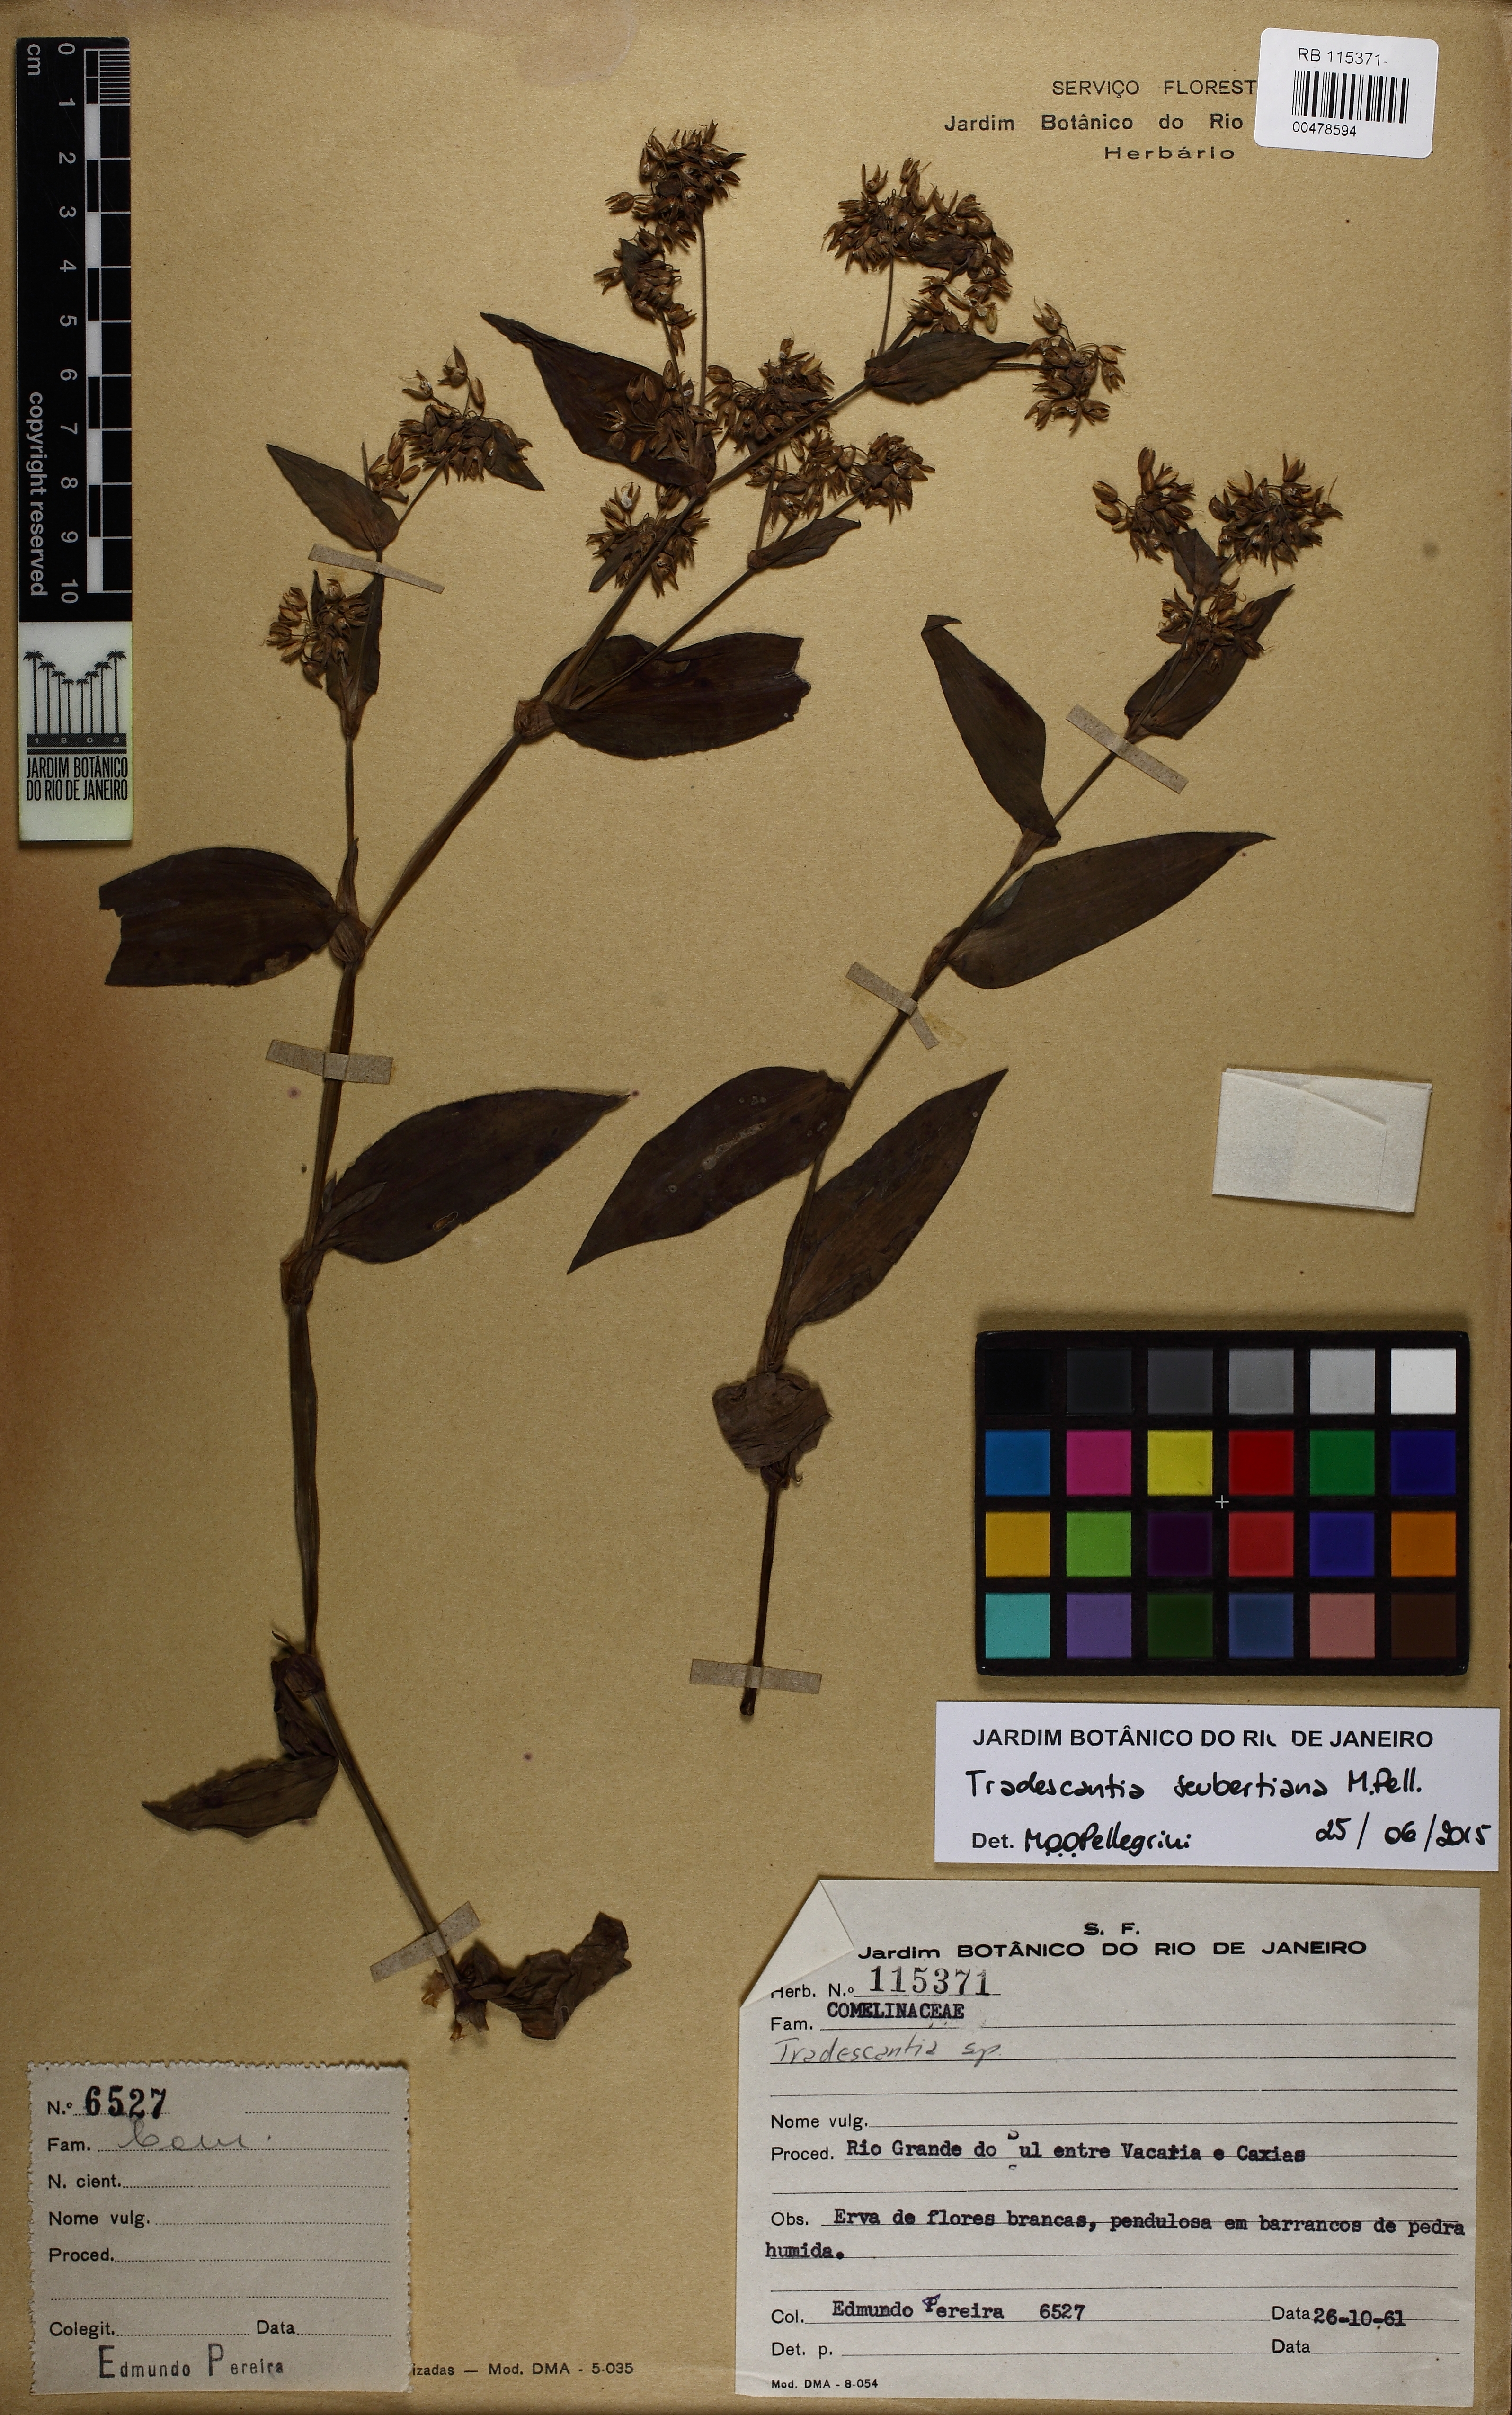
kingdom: Plantae
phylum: Tracheophyta
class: Liliopsida
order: Commelinales
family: Commelinaceae
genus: Tradescantia
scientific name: Tradescantia seubertiana
